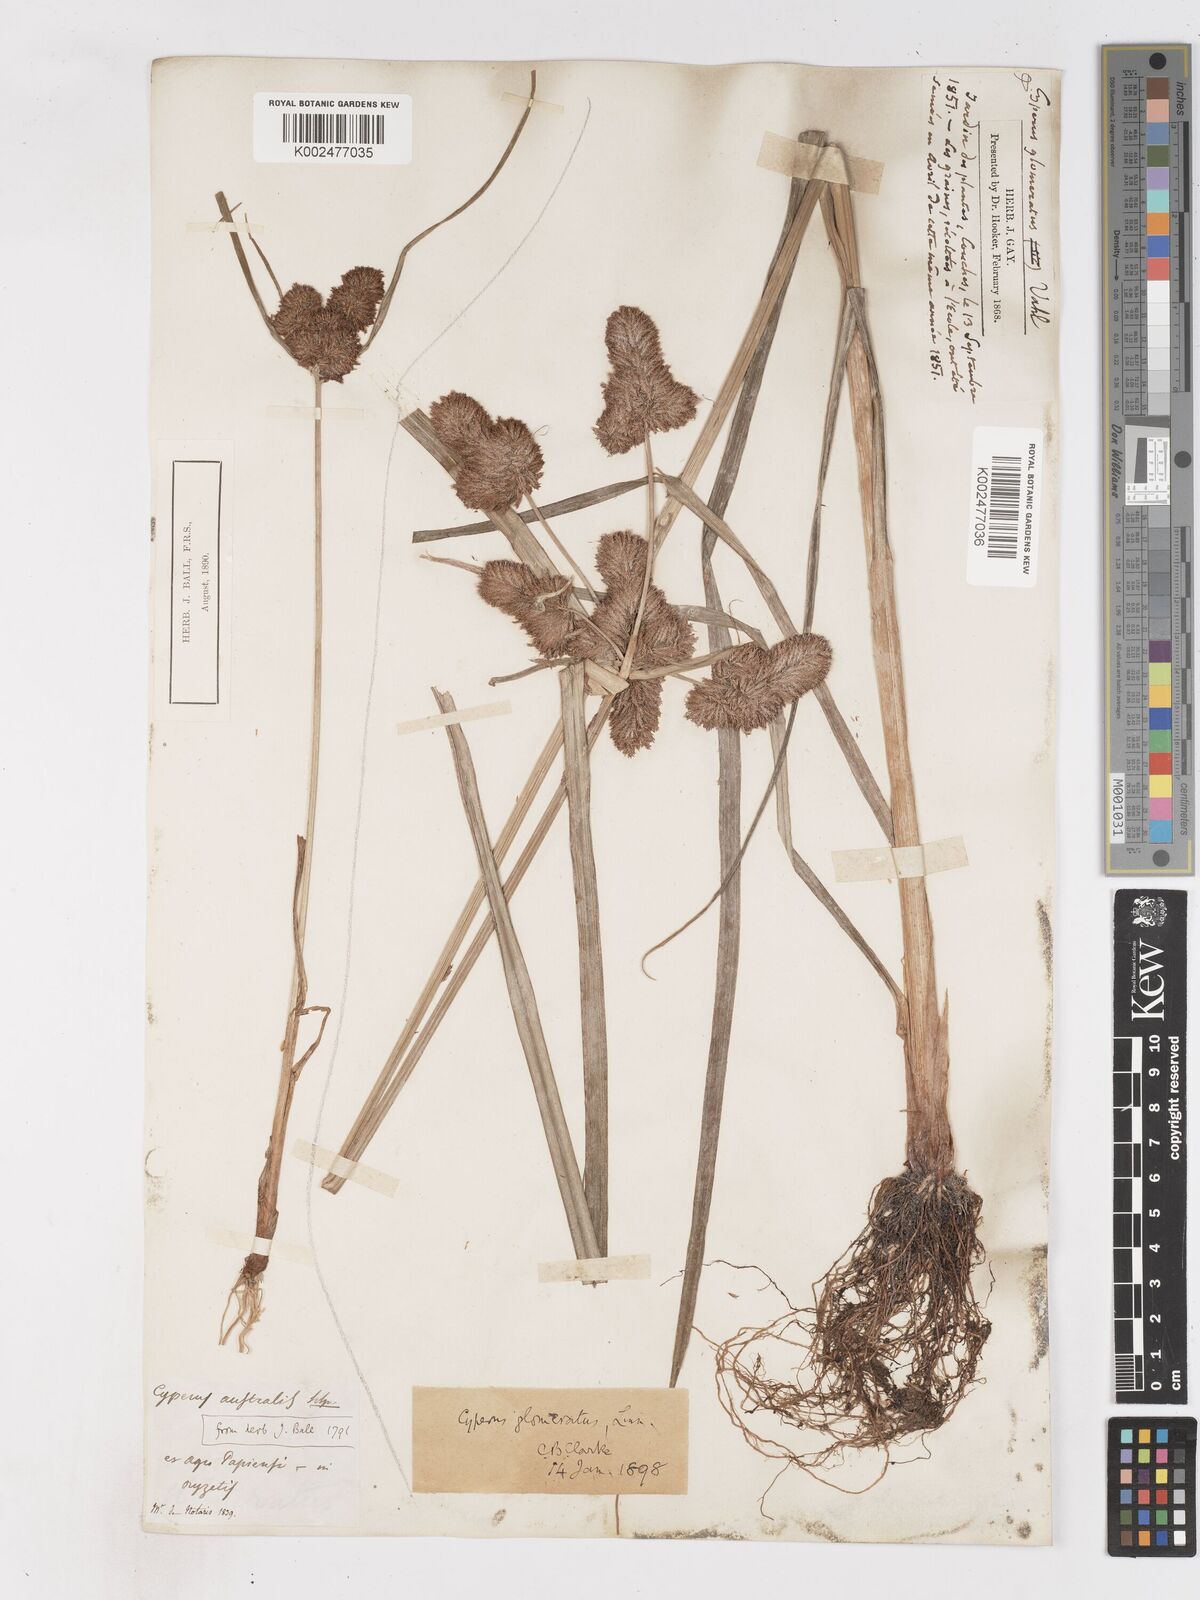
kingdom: Plantae
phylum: Tracheophyta
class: Liliopsida
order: Poales
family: Cyperaceae
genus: Cyperus
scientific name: Cyperus glomeratus
